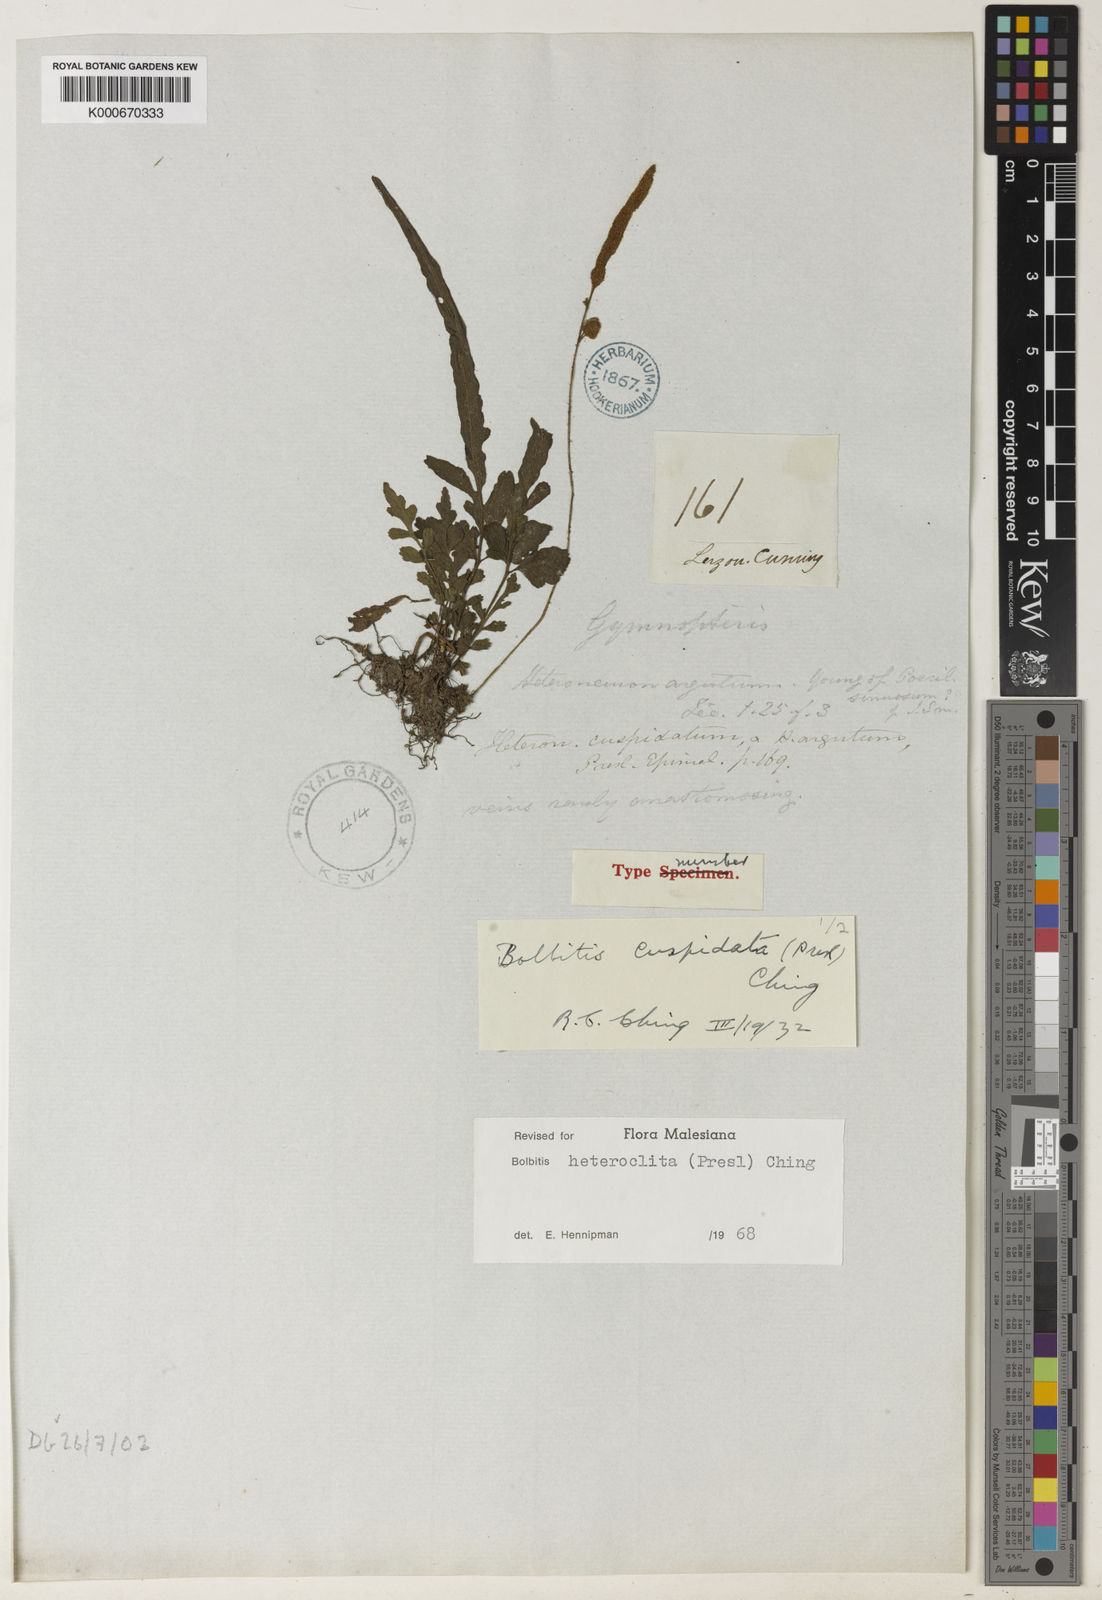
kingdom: Plantae
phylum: Tracheophyta
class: Polypodiopsida
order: Polypodiales
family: Dryopteridaceae
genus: Bolbitis
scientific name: Bolbitis heteroclita
